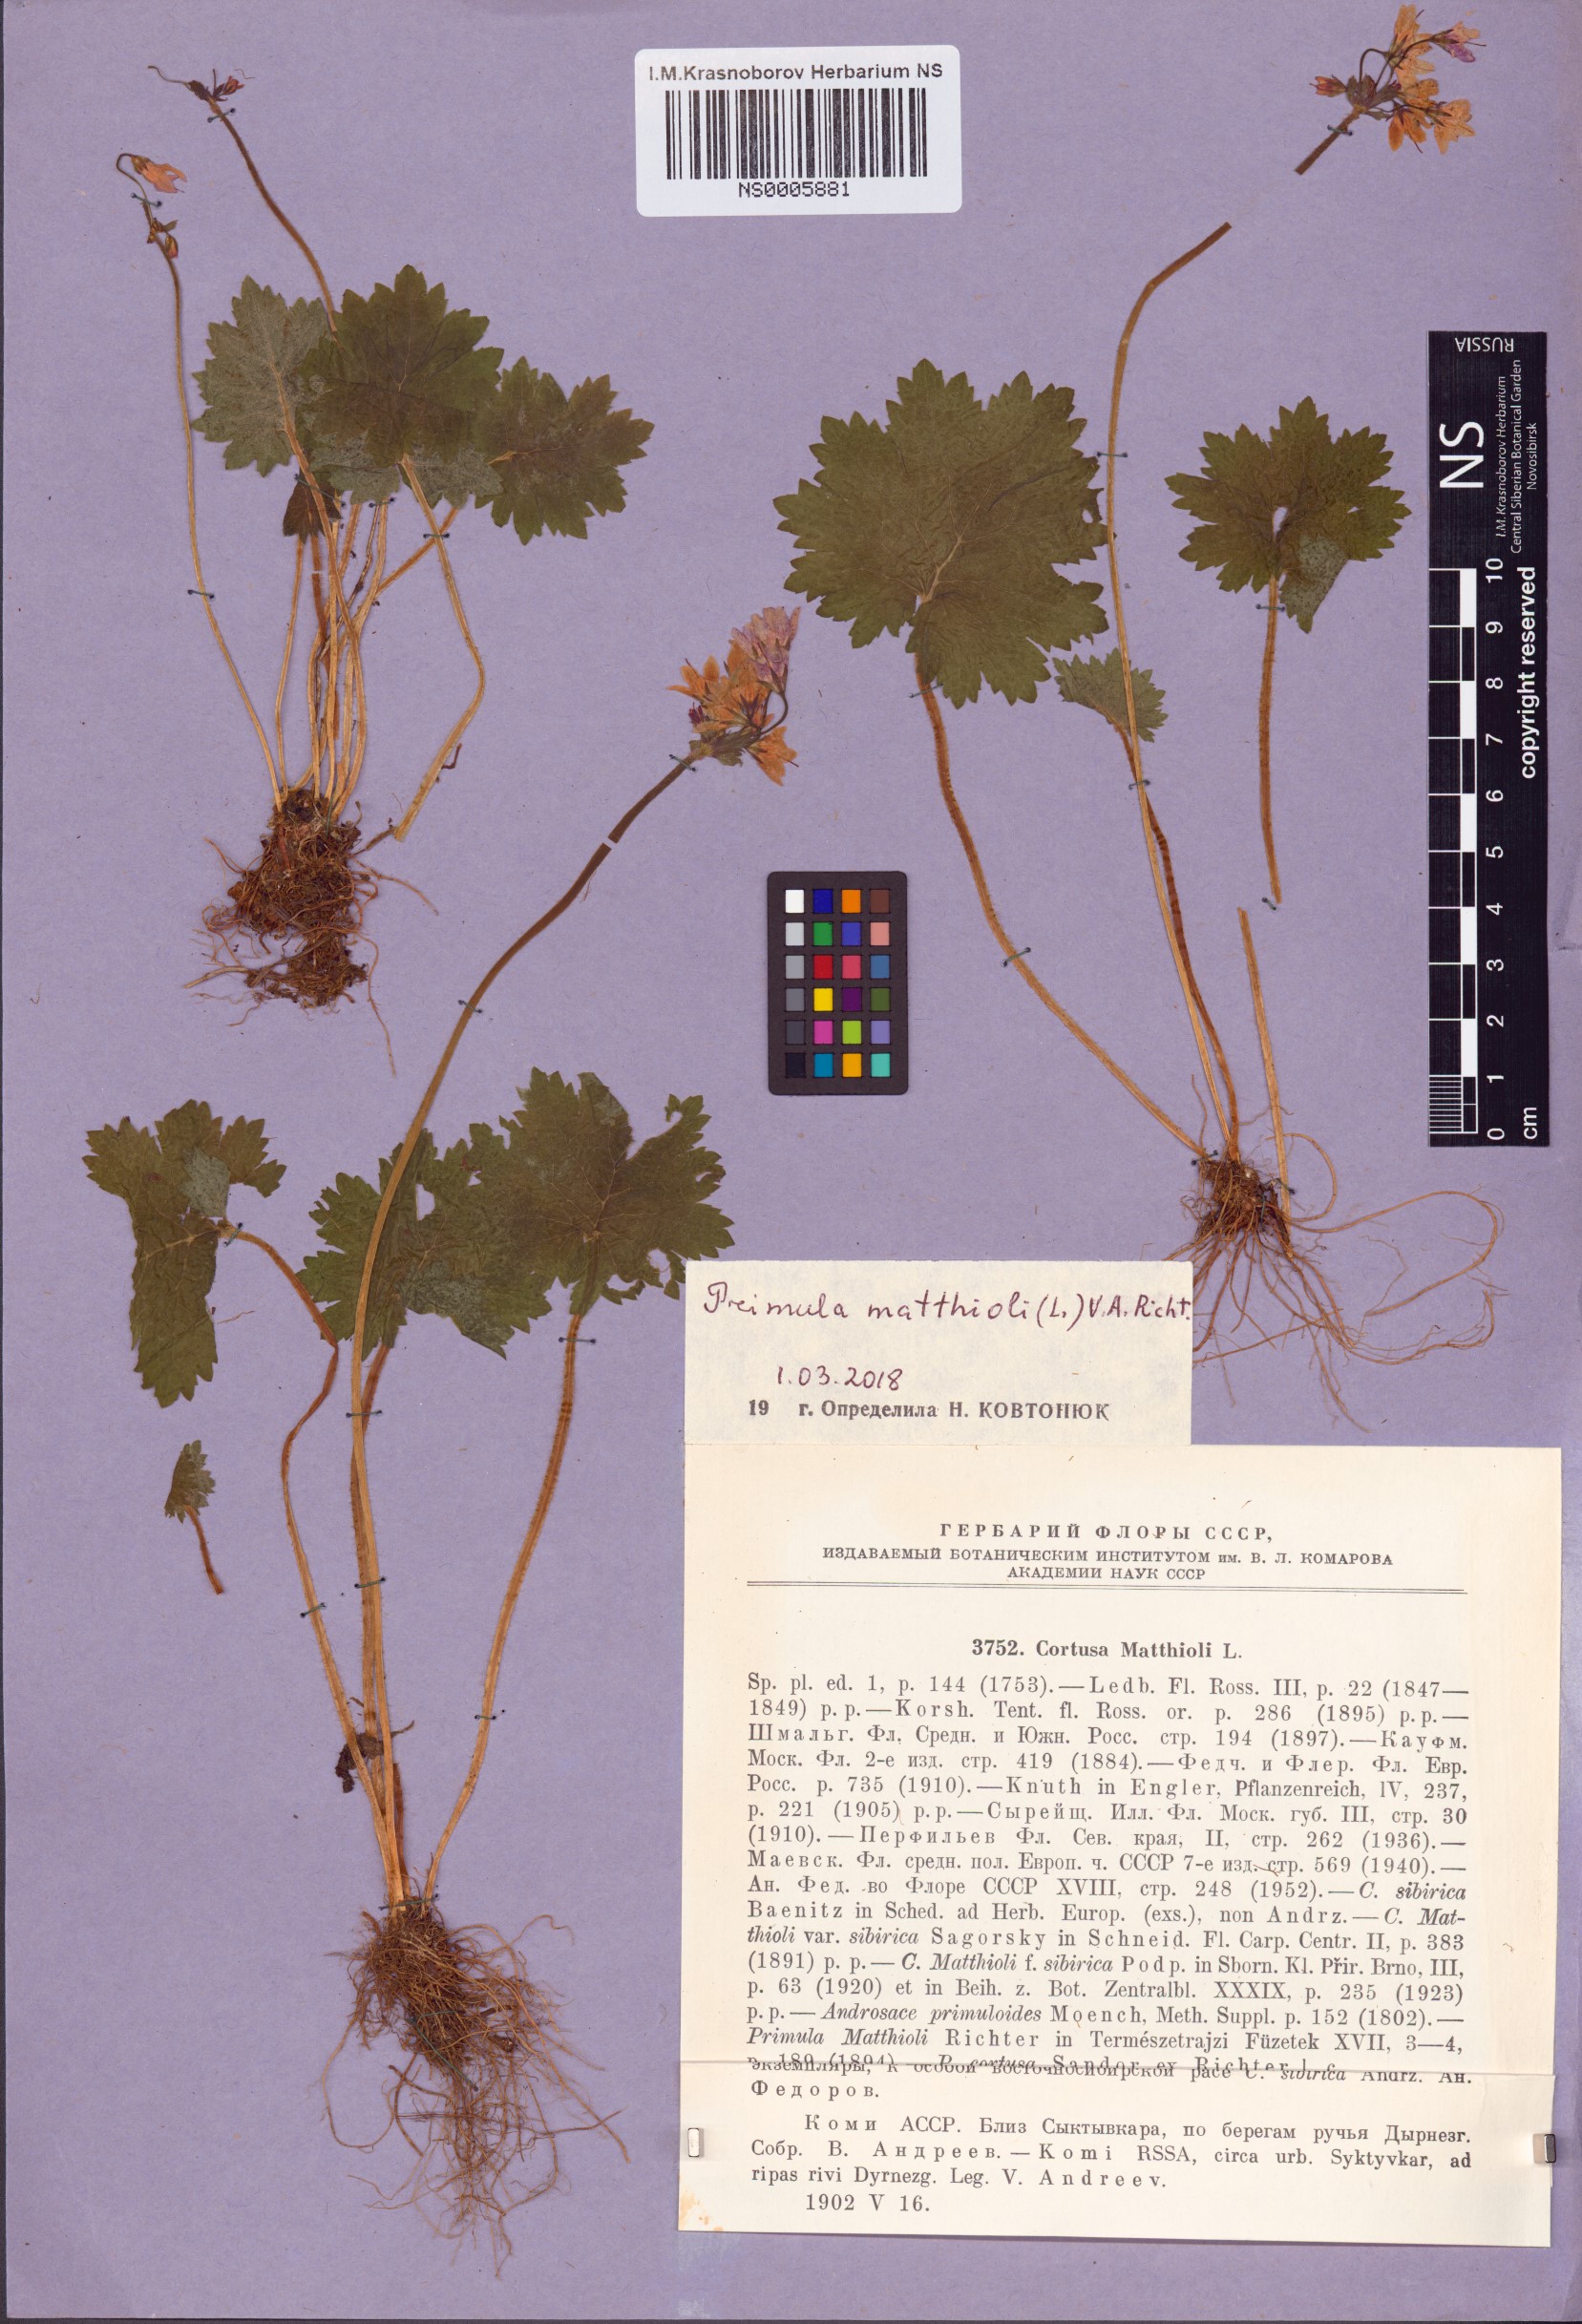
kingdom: Plantae
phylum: Tracheophyta
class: Magnoliopsida
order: Ericales
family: Primulaceae
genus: Primula
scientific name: Primula matthioli
